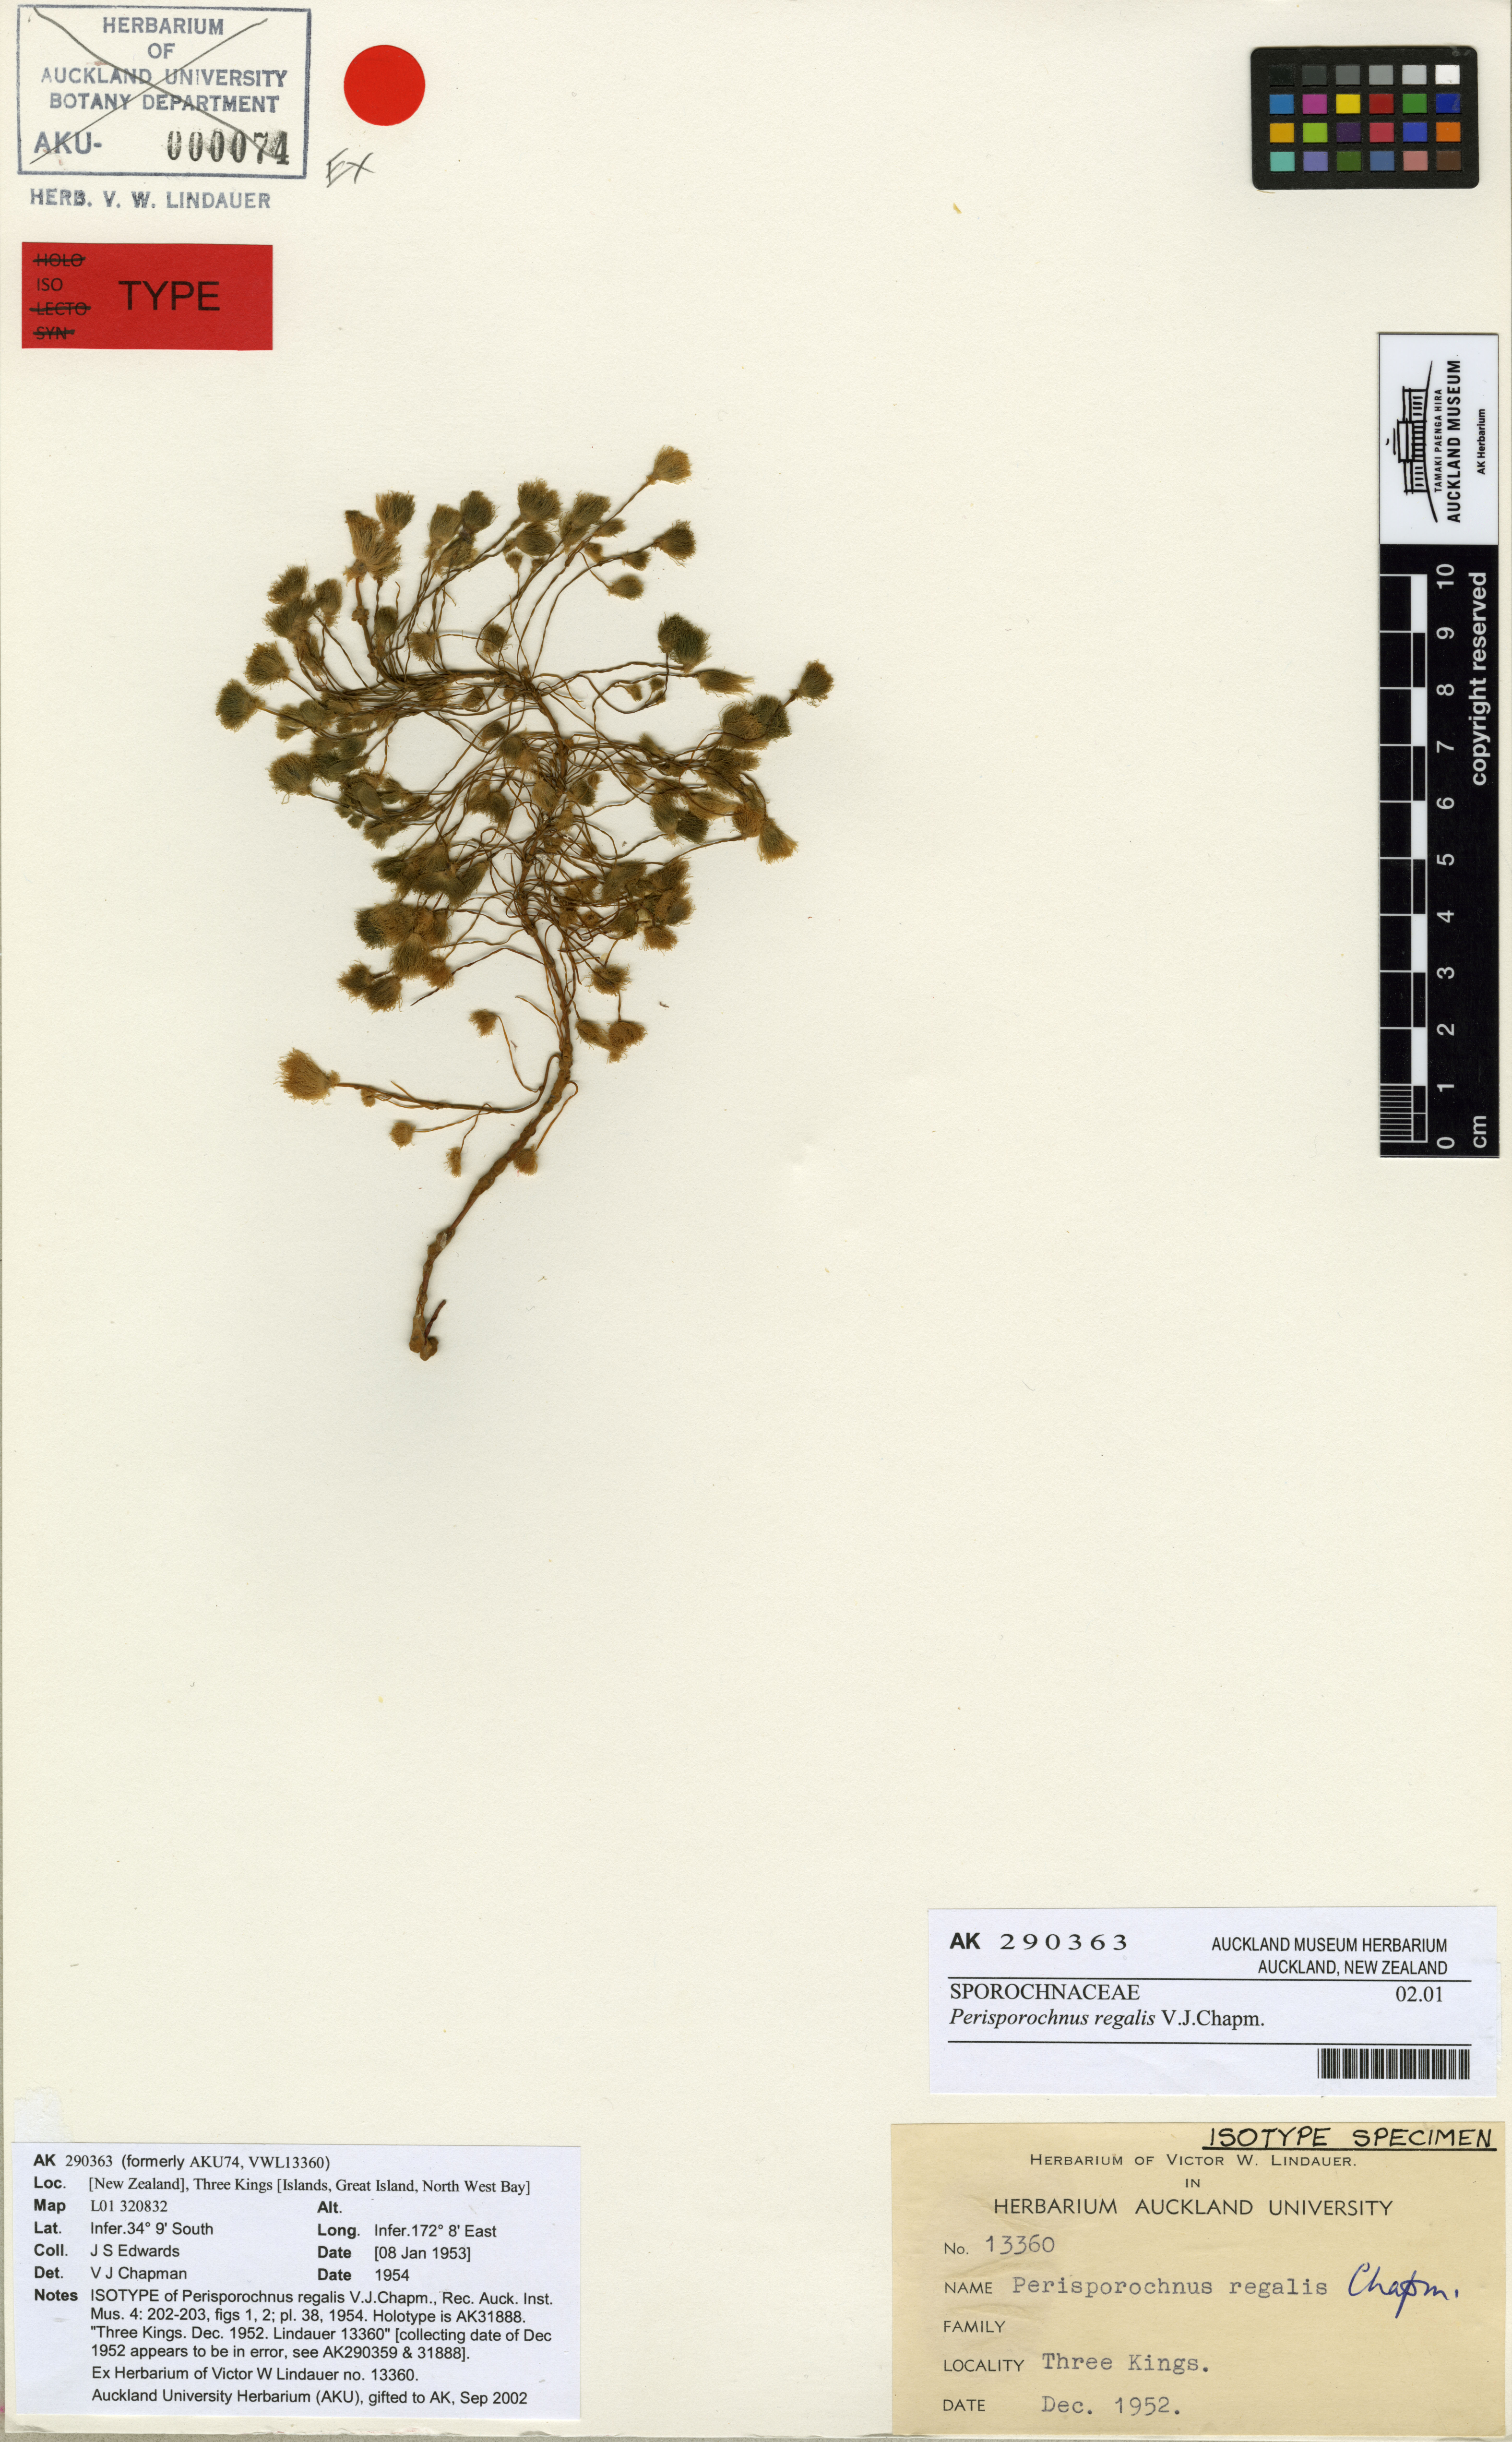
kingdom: Chromista
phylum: Ochrophyta
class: Phaeophyceae
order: Sporochnales
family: Sporochnaceae
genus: Perisporochnus
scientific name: Perisporochnus regalis
